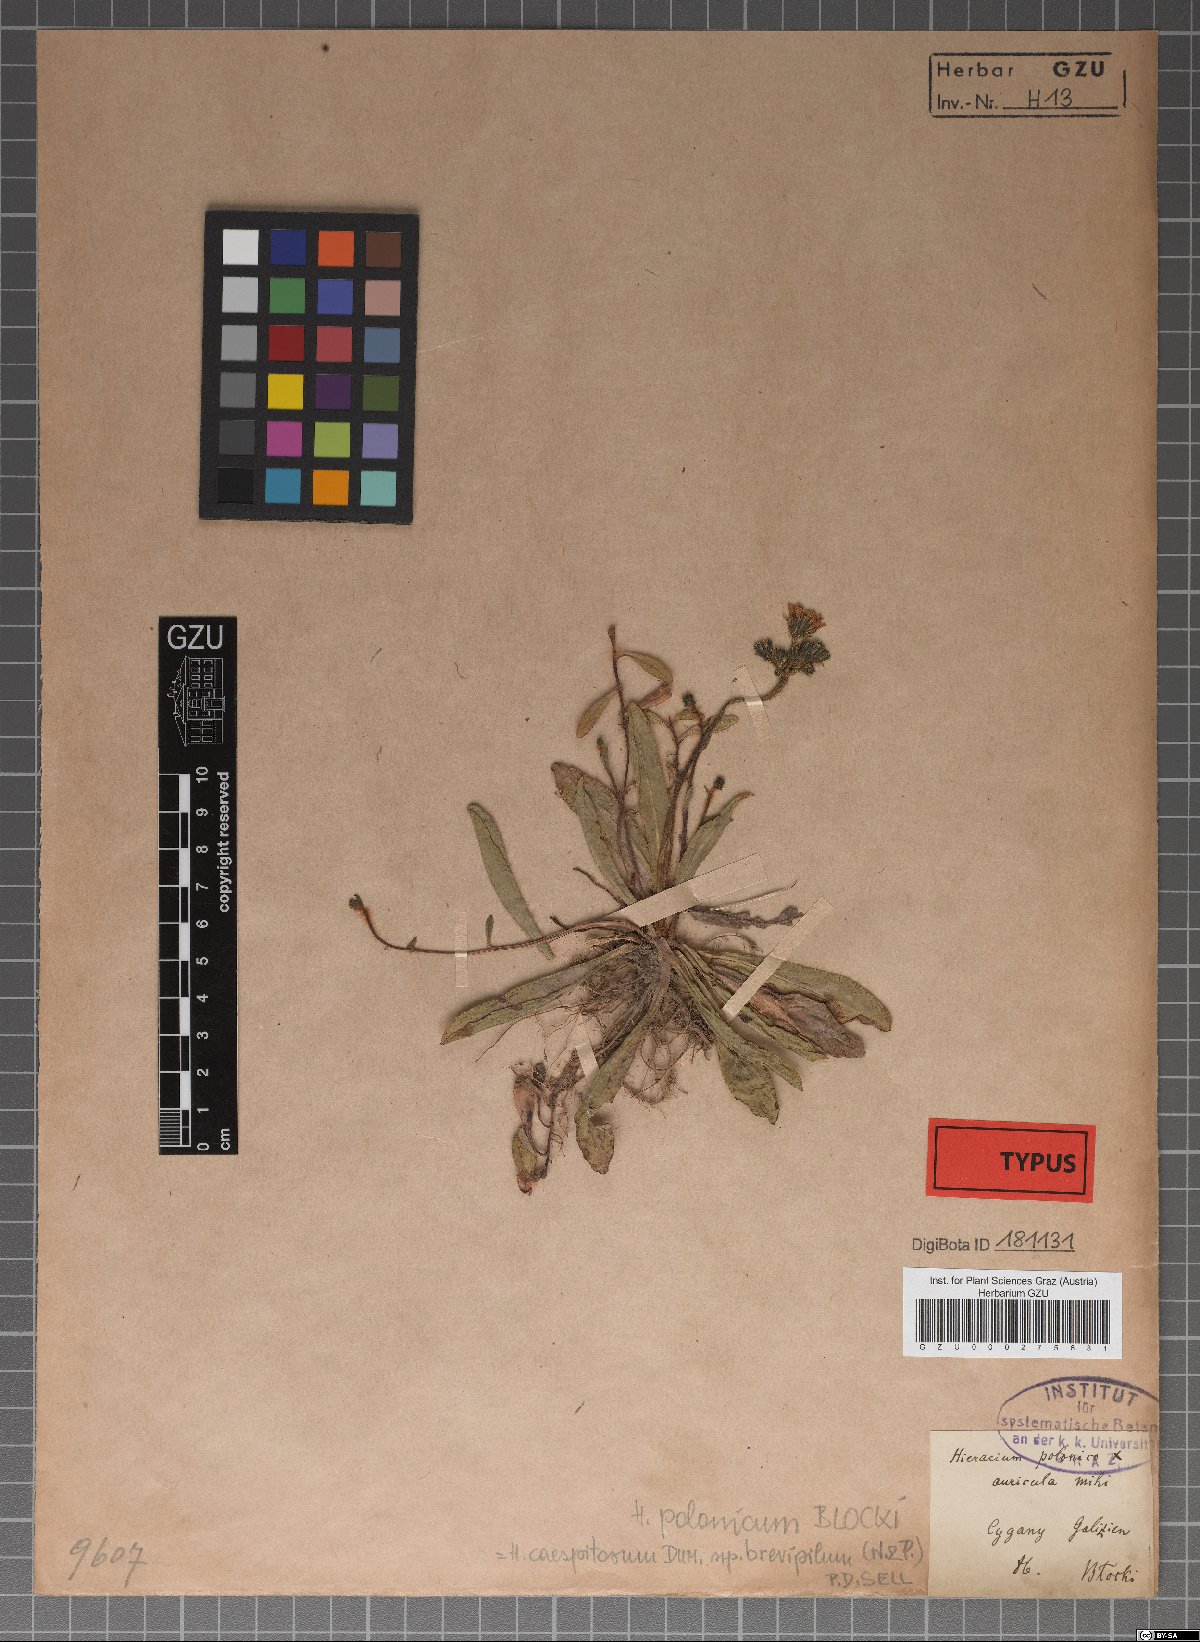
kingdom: Plantae
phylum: Tracheophyta
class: Magnoliopsida
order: Asterales
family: Asteraceae
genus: Pilosella
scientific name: Pilosella onegensis
